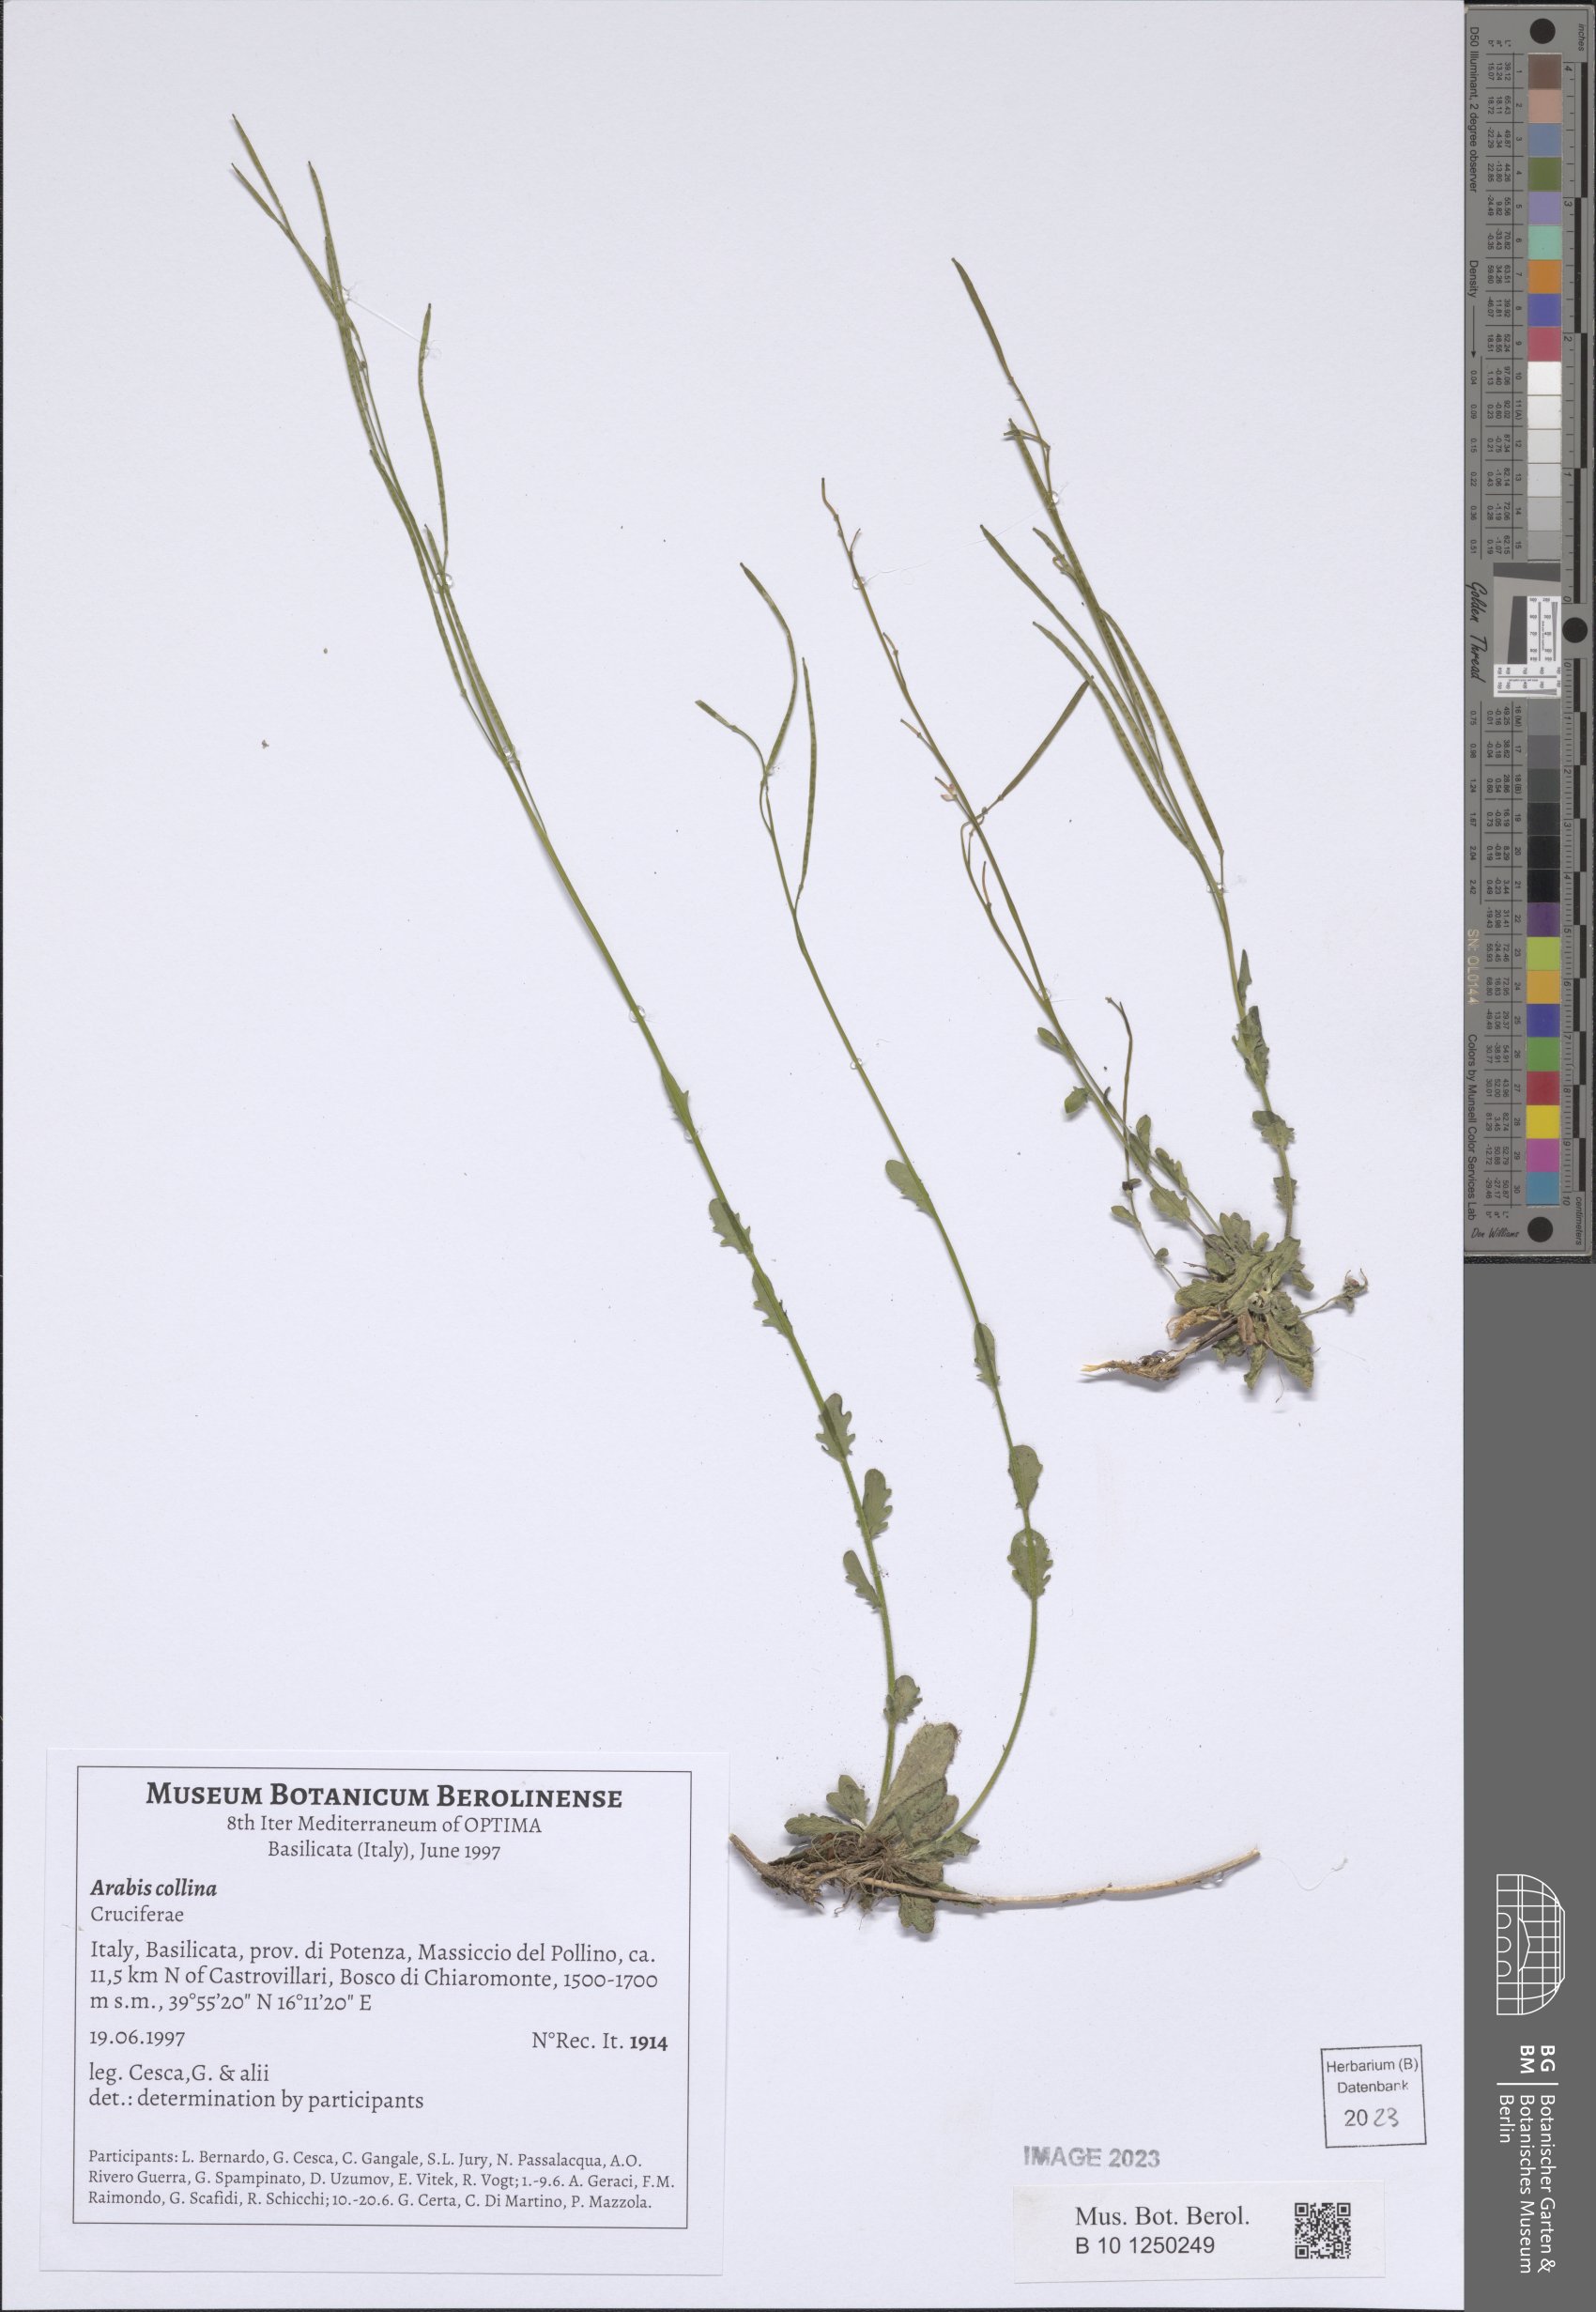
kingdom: Plantae
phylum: Tracheophyta
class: Magnoliopsida
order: Brassicales
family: Brassicaceae
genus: Arabis
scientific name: Arabis collina
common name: Rosy cress
